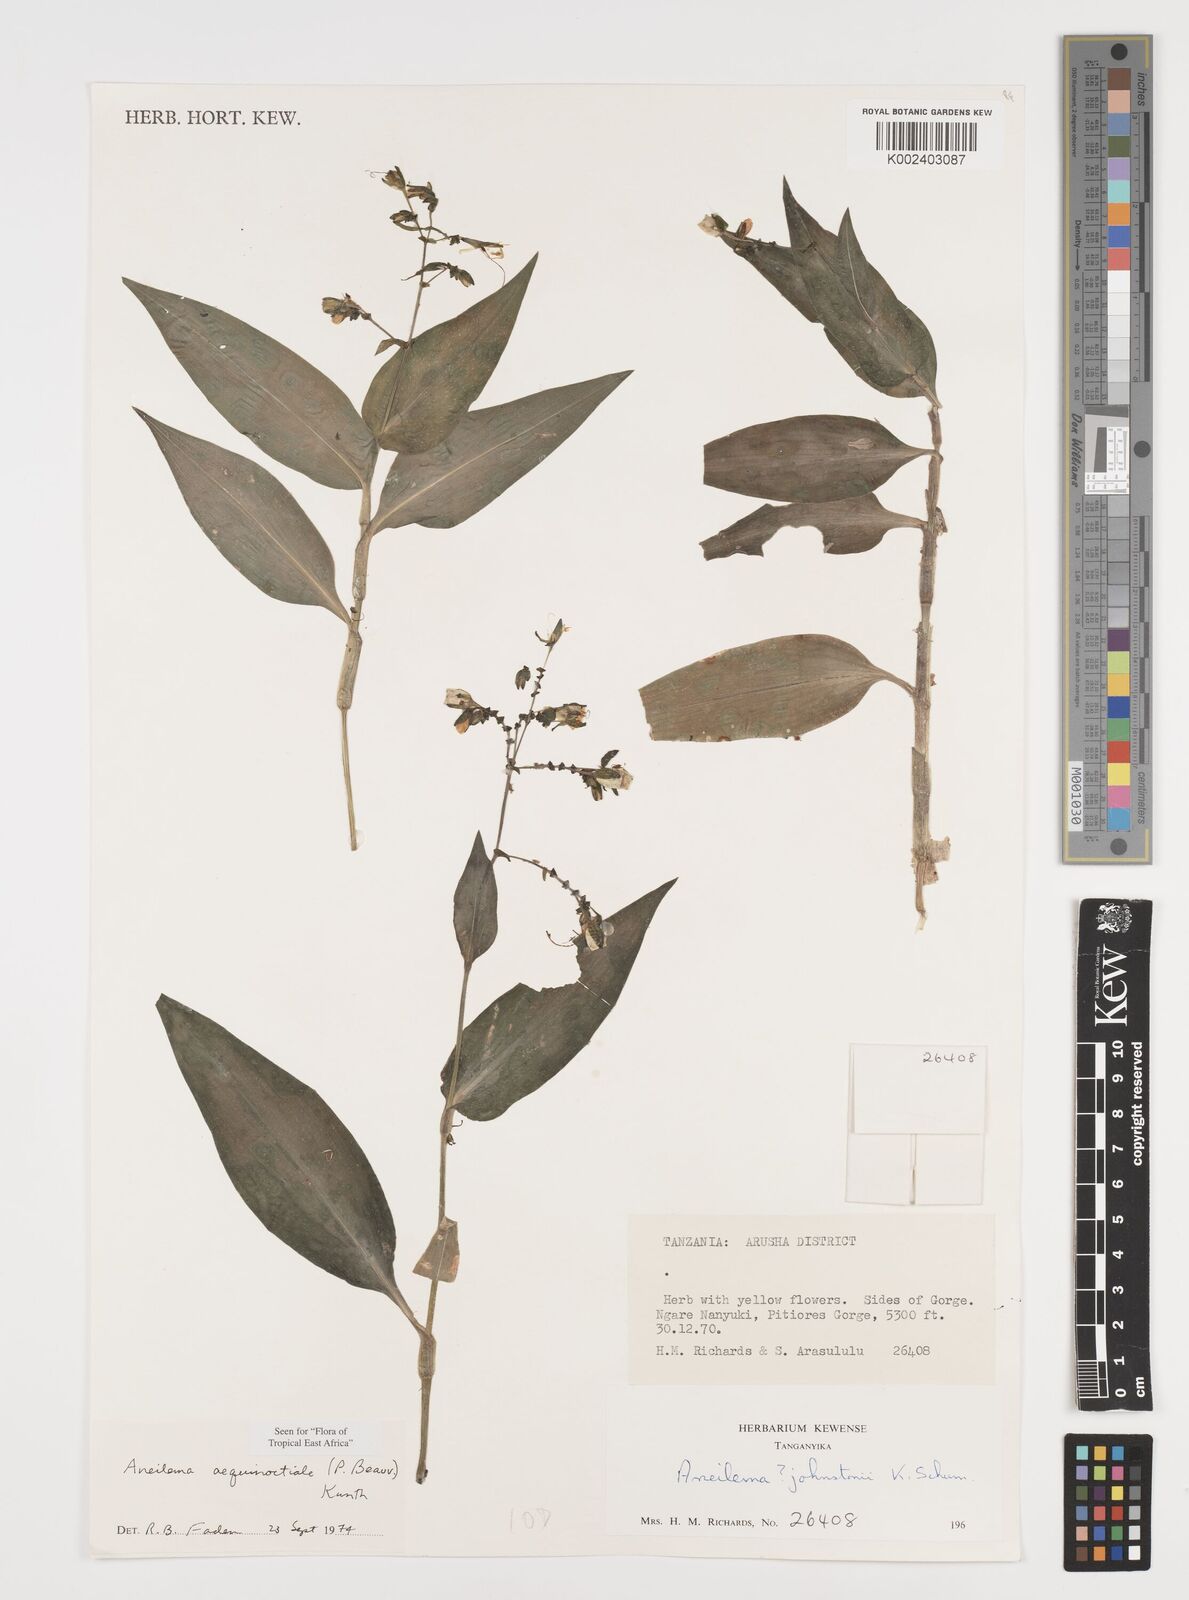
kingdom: Plantae
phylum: Tracheophyta
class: Liliopsida
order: Commelinales
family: Commelinaceae
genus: Aneilema
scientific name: Aneilema aequinoctiale
